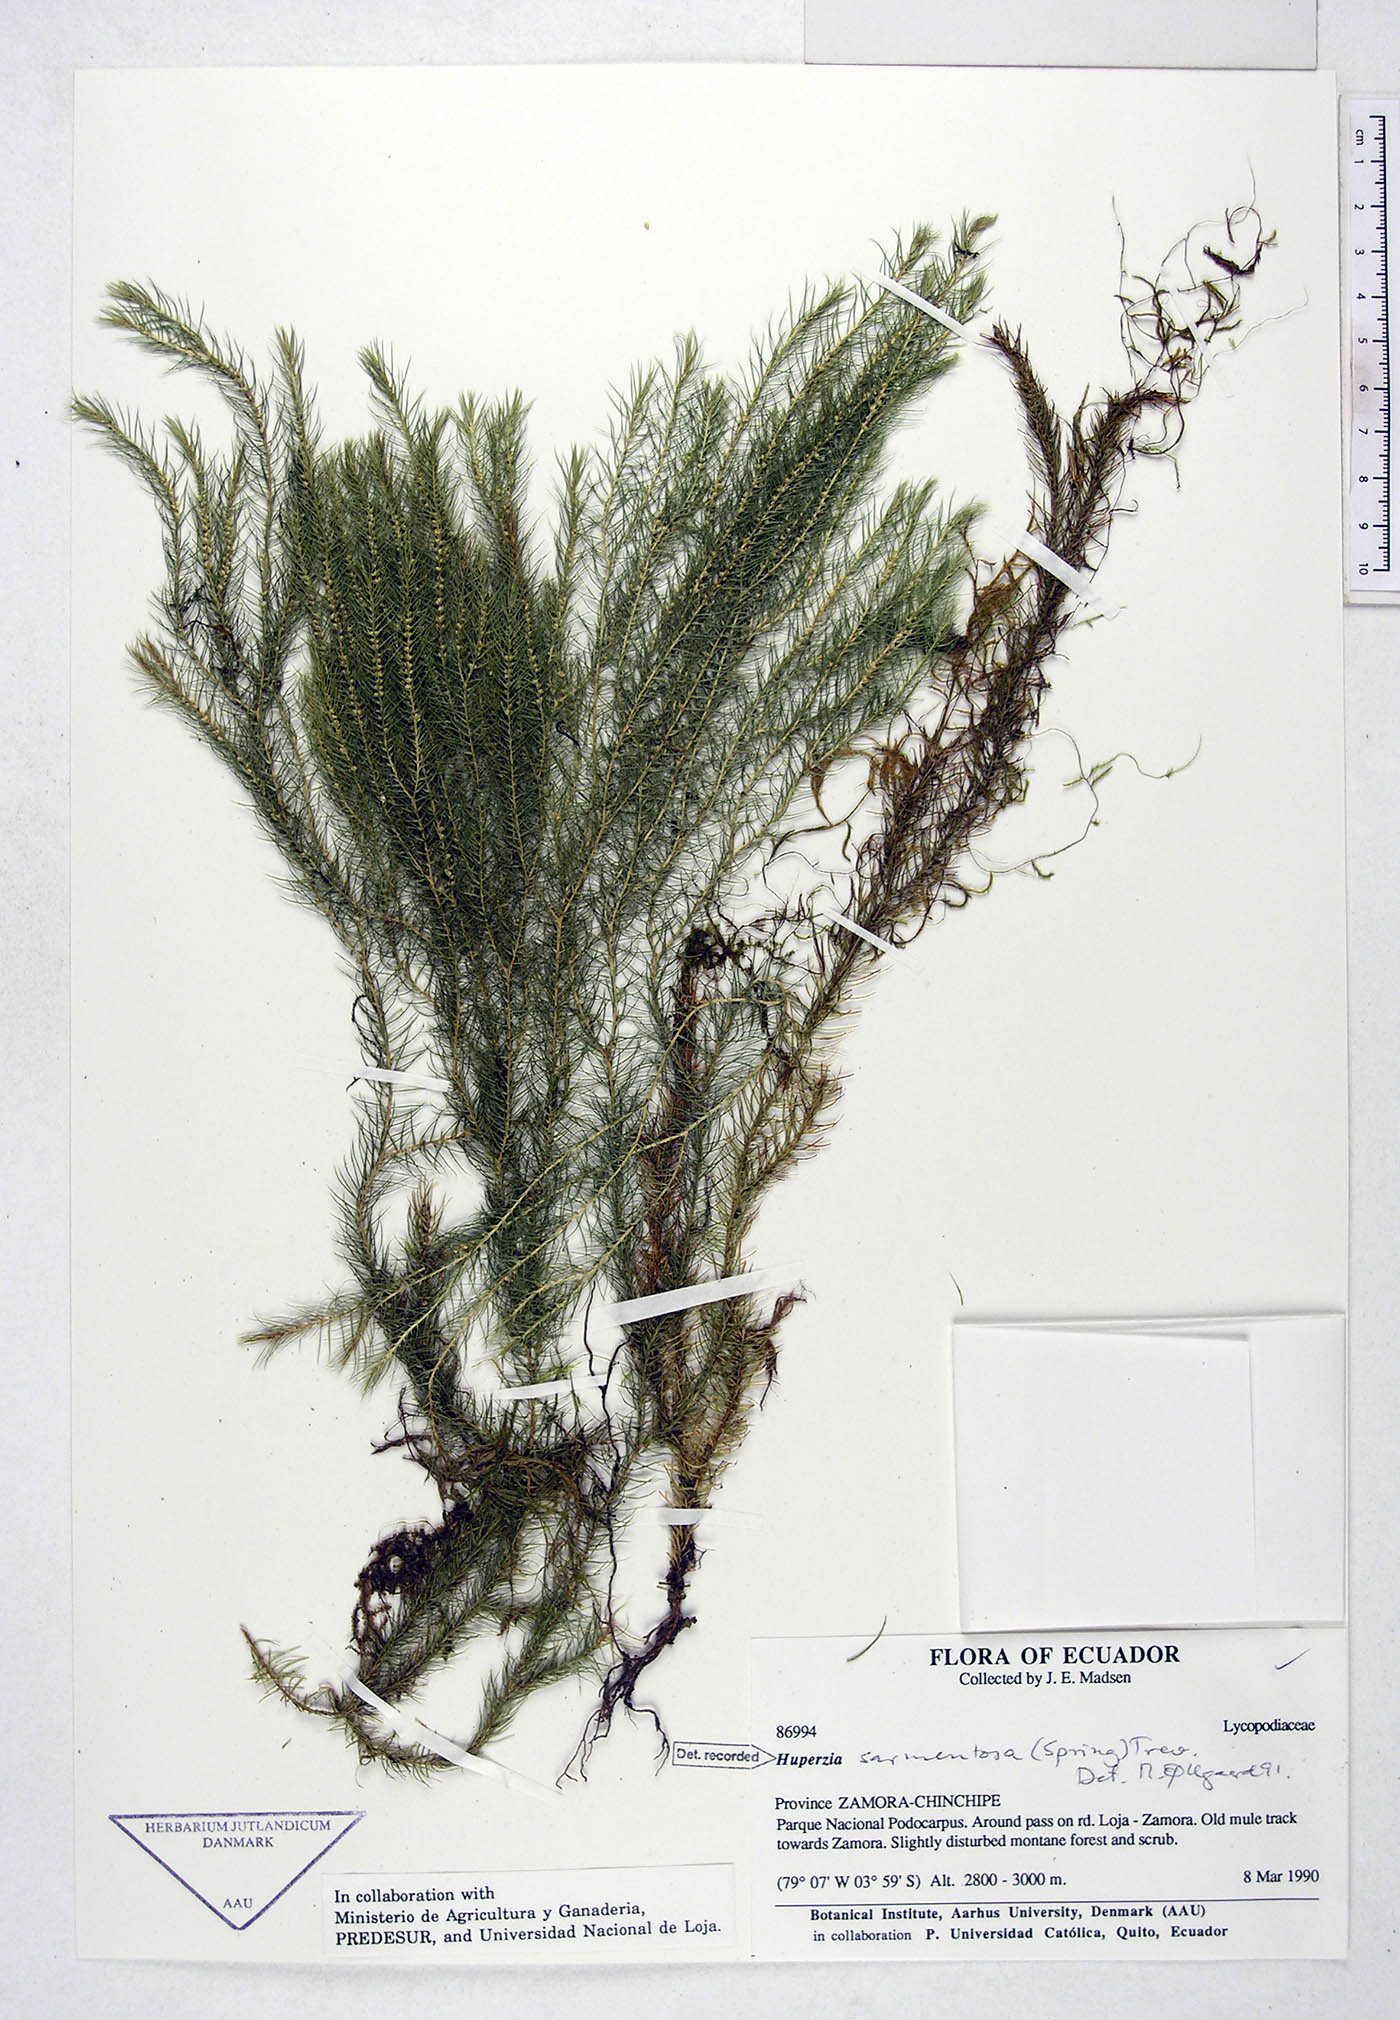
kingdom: Plantae
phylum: Tracheophyta
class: Lycopodiopsida
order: Lycopodiales
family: Lycopodiaceae
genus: Phlegmariurus
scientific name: Phlegmariurus sarmentosus
